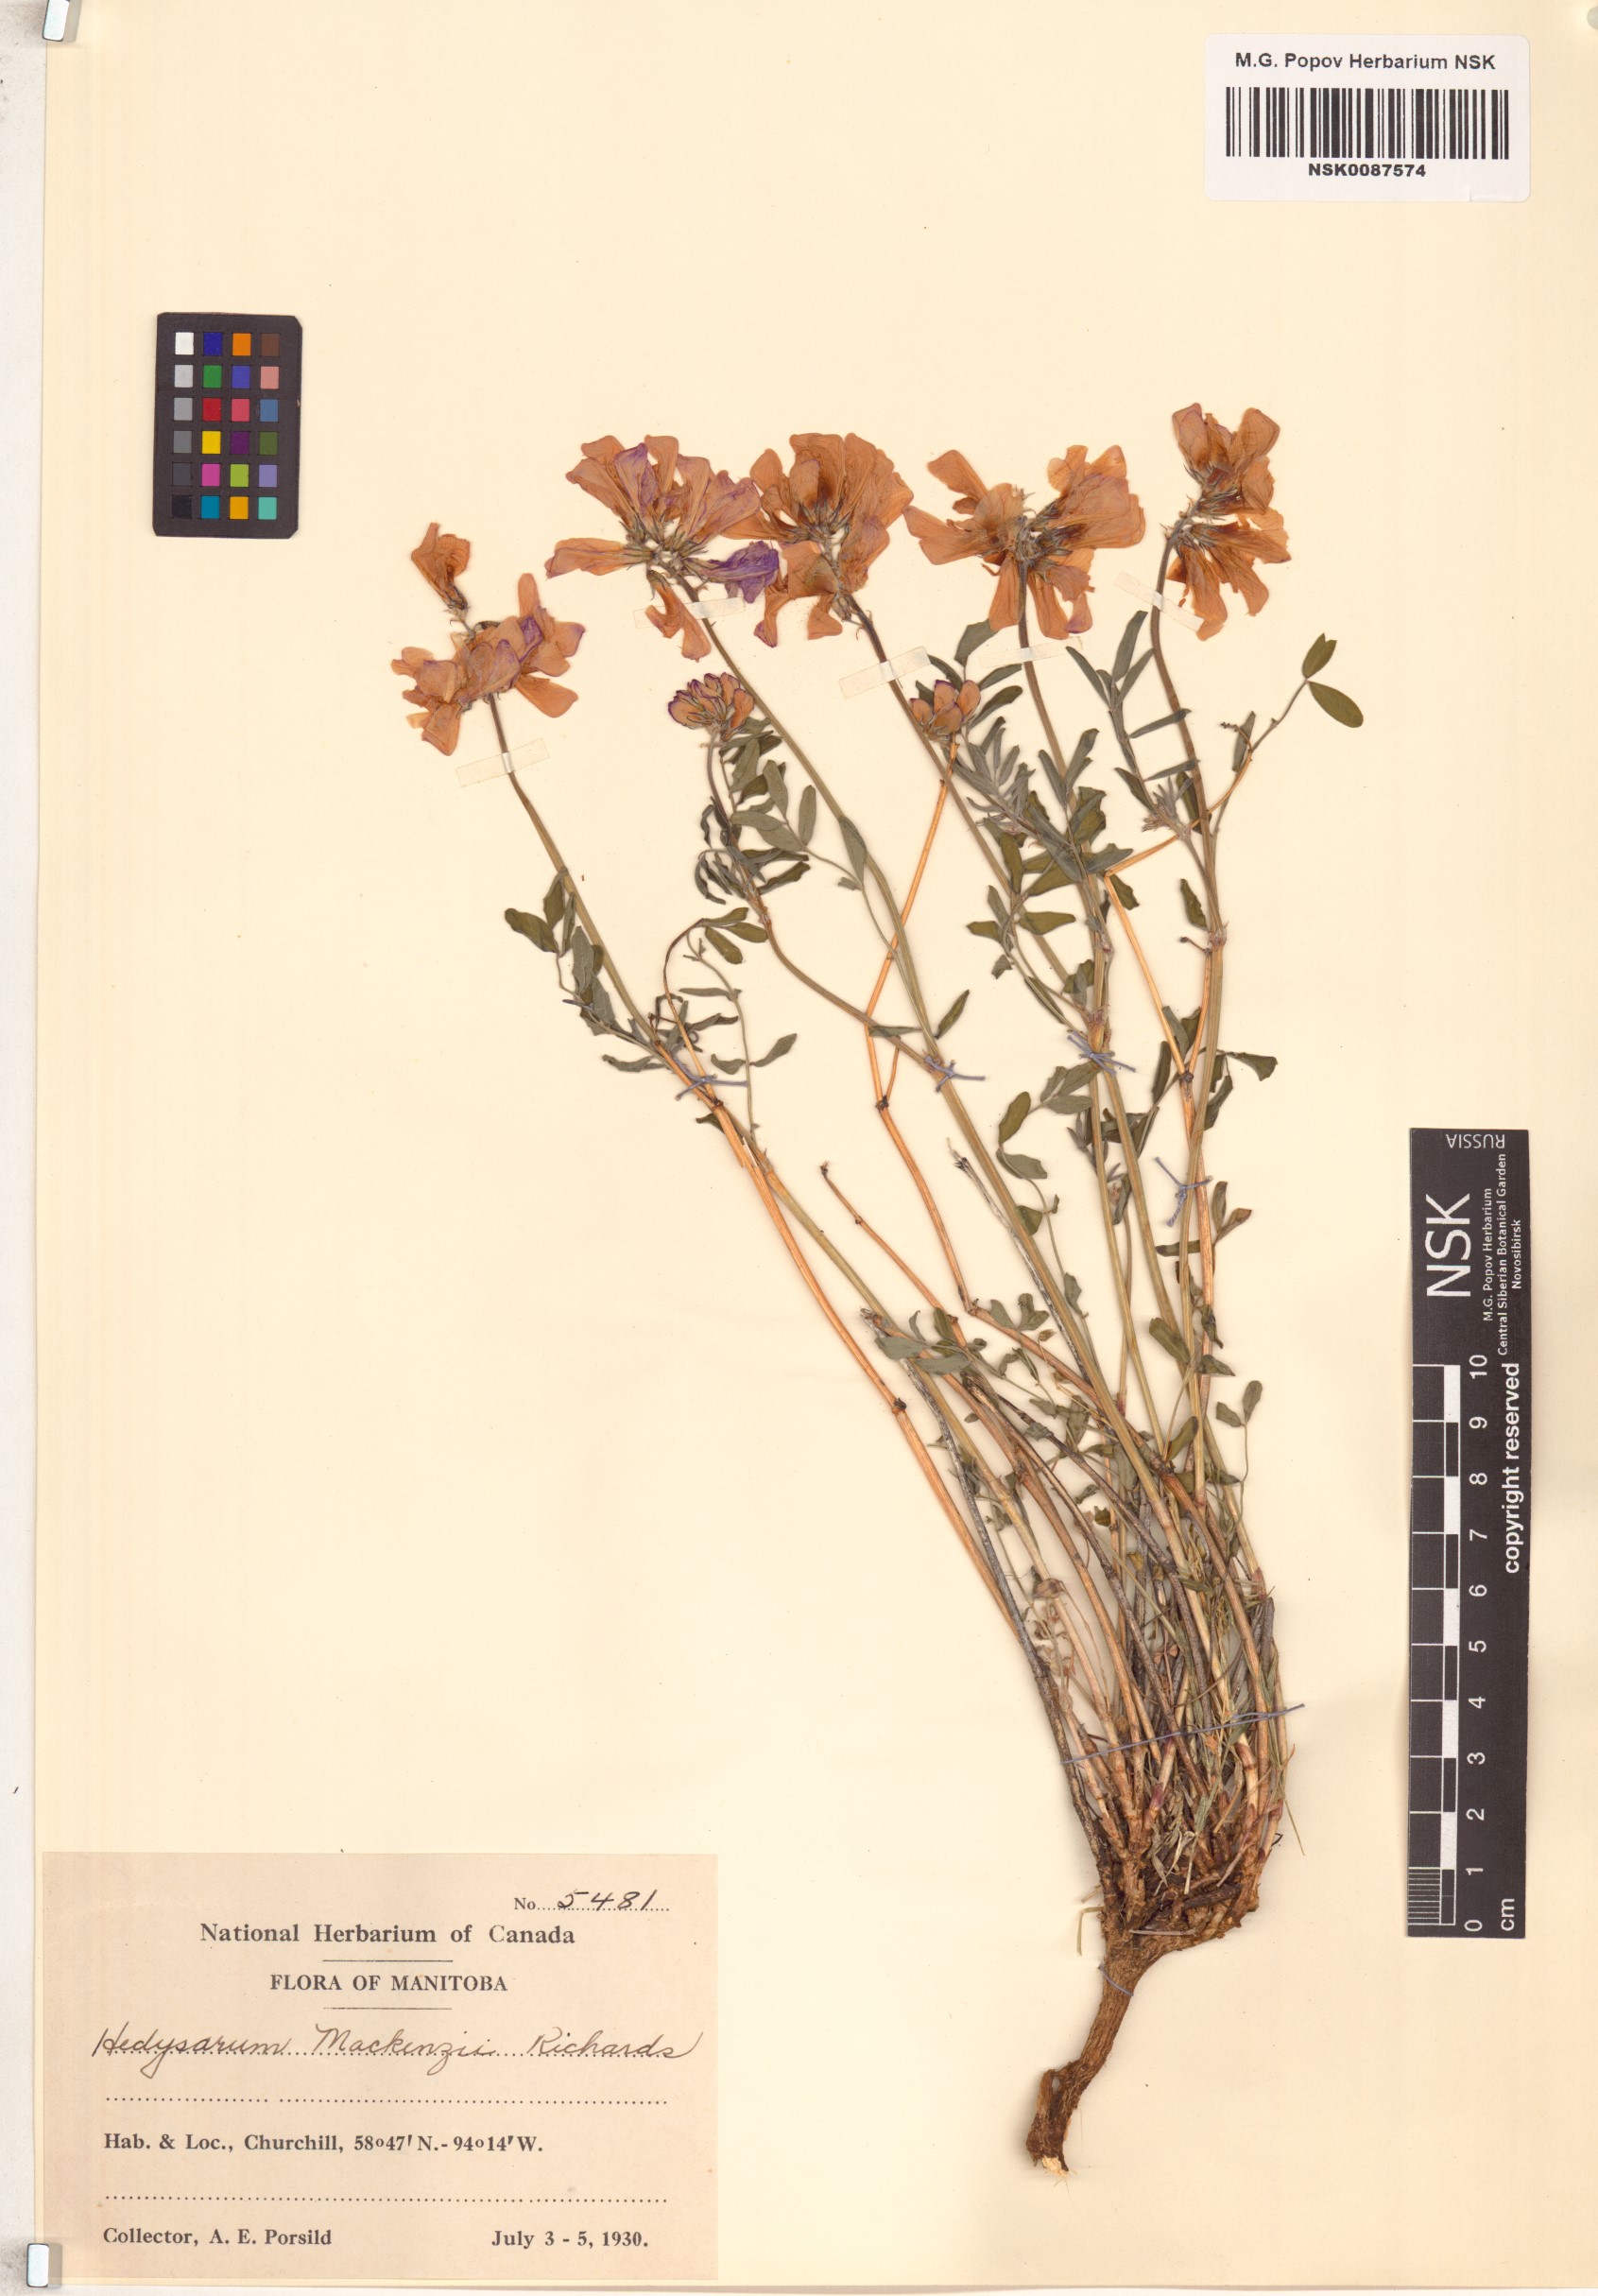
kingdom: Plantae
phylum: Tracheophyta
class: Magnoliopsida
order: Fabales
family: Fabaceae
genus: Hedysarum
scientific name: Hedysarum boreale
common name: Northern sweet-vetch
